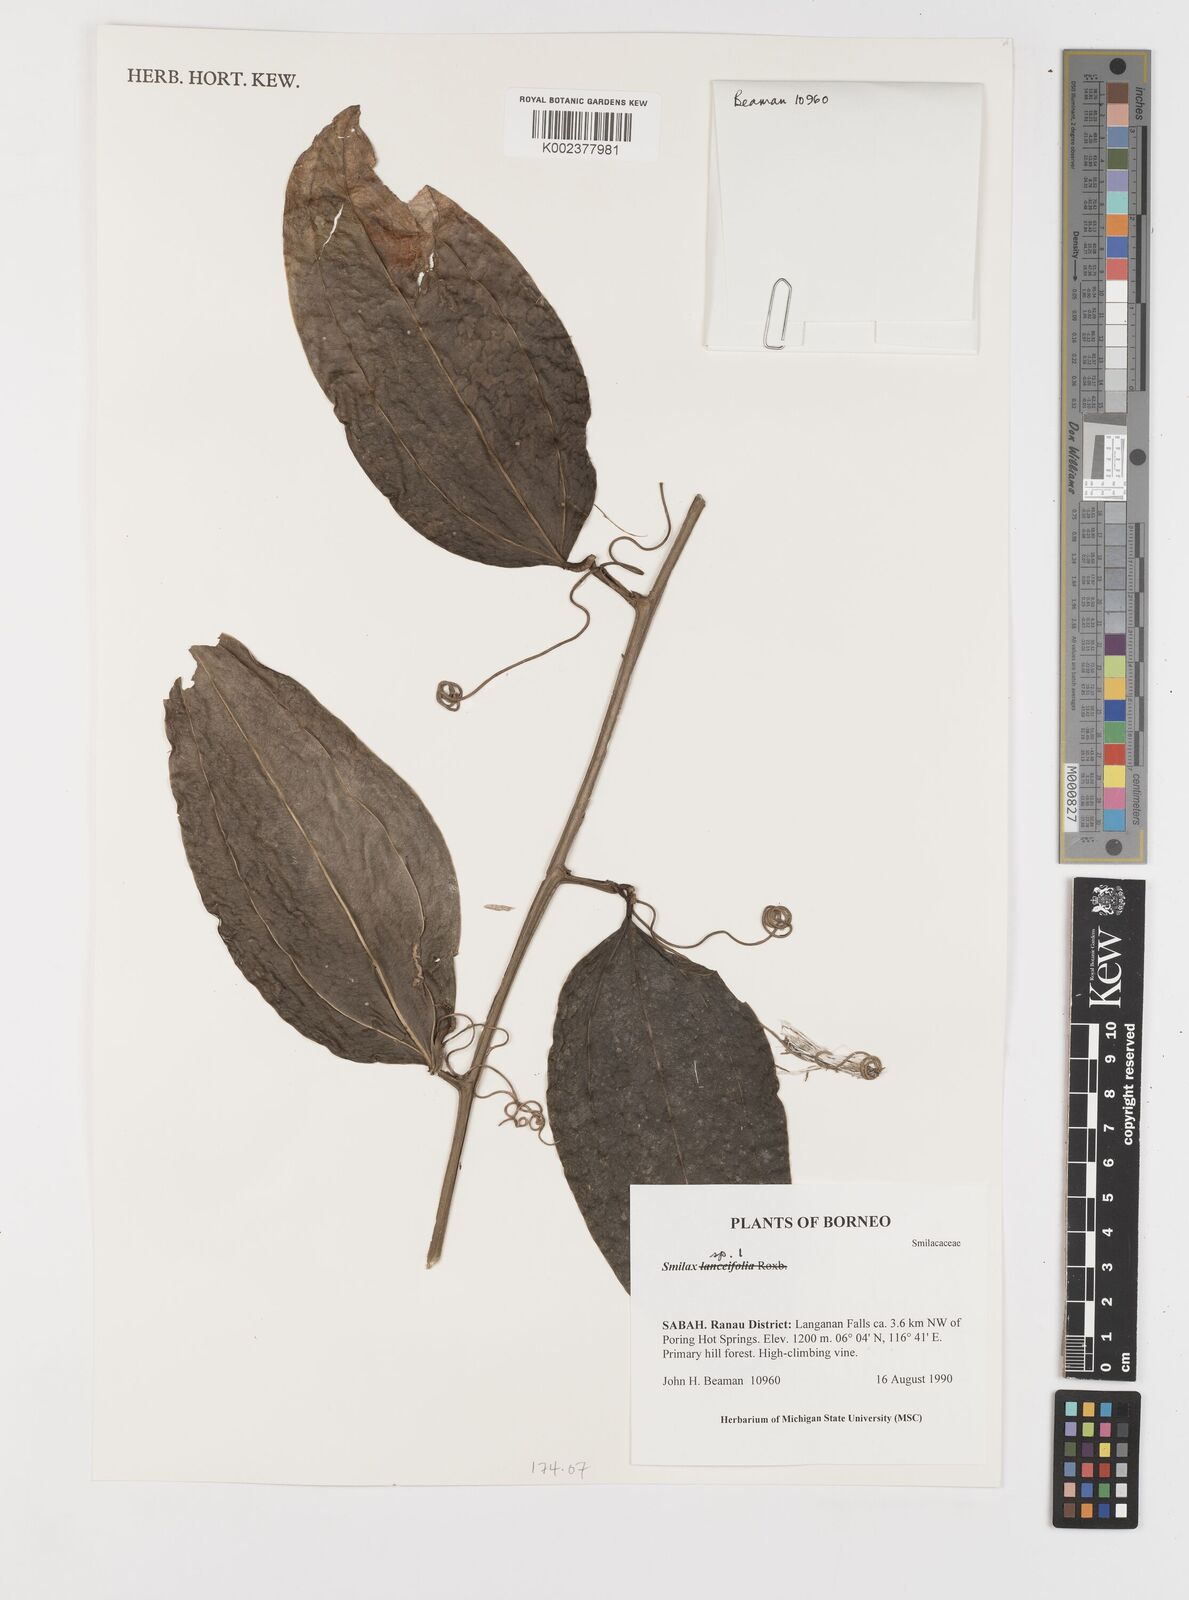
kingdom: Plantae
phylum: Tracheophyta
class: Liliopsida
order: Liliales
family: Smilacaceae
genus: Smilax
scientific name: Smilax
